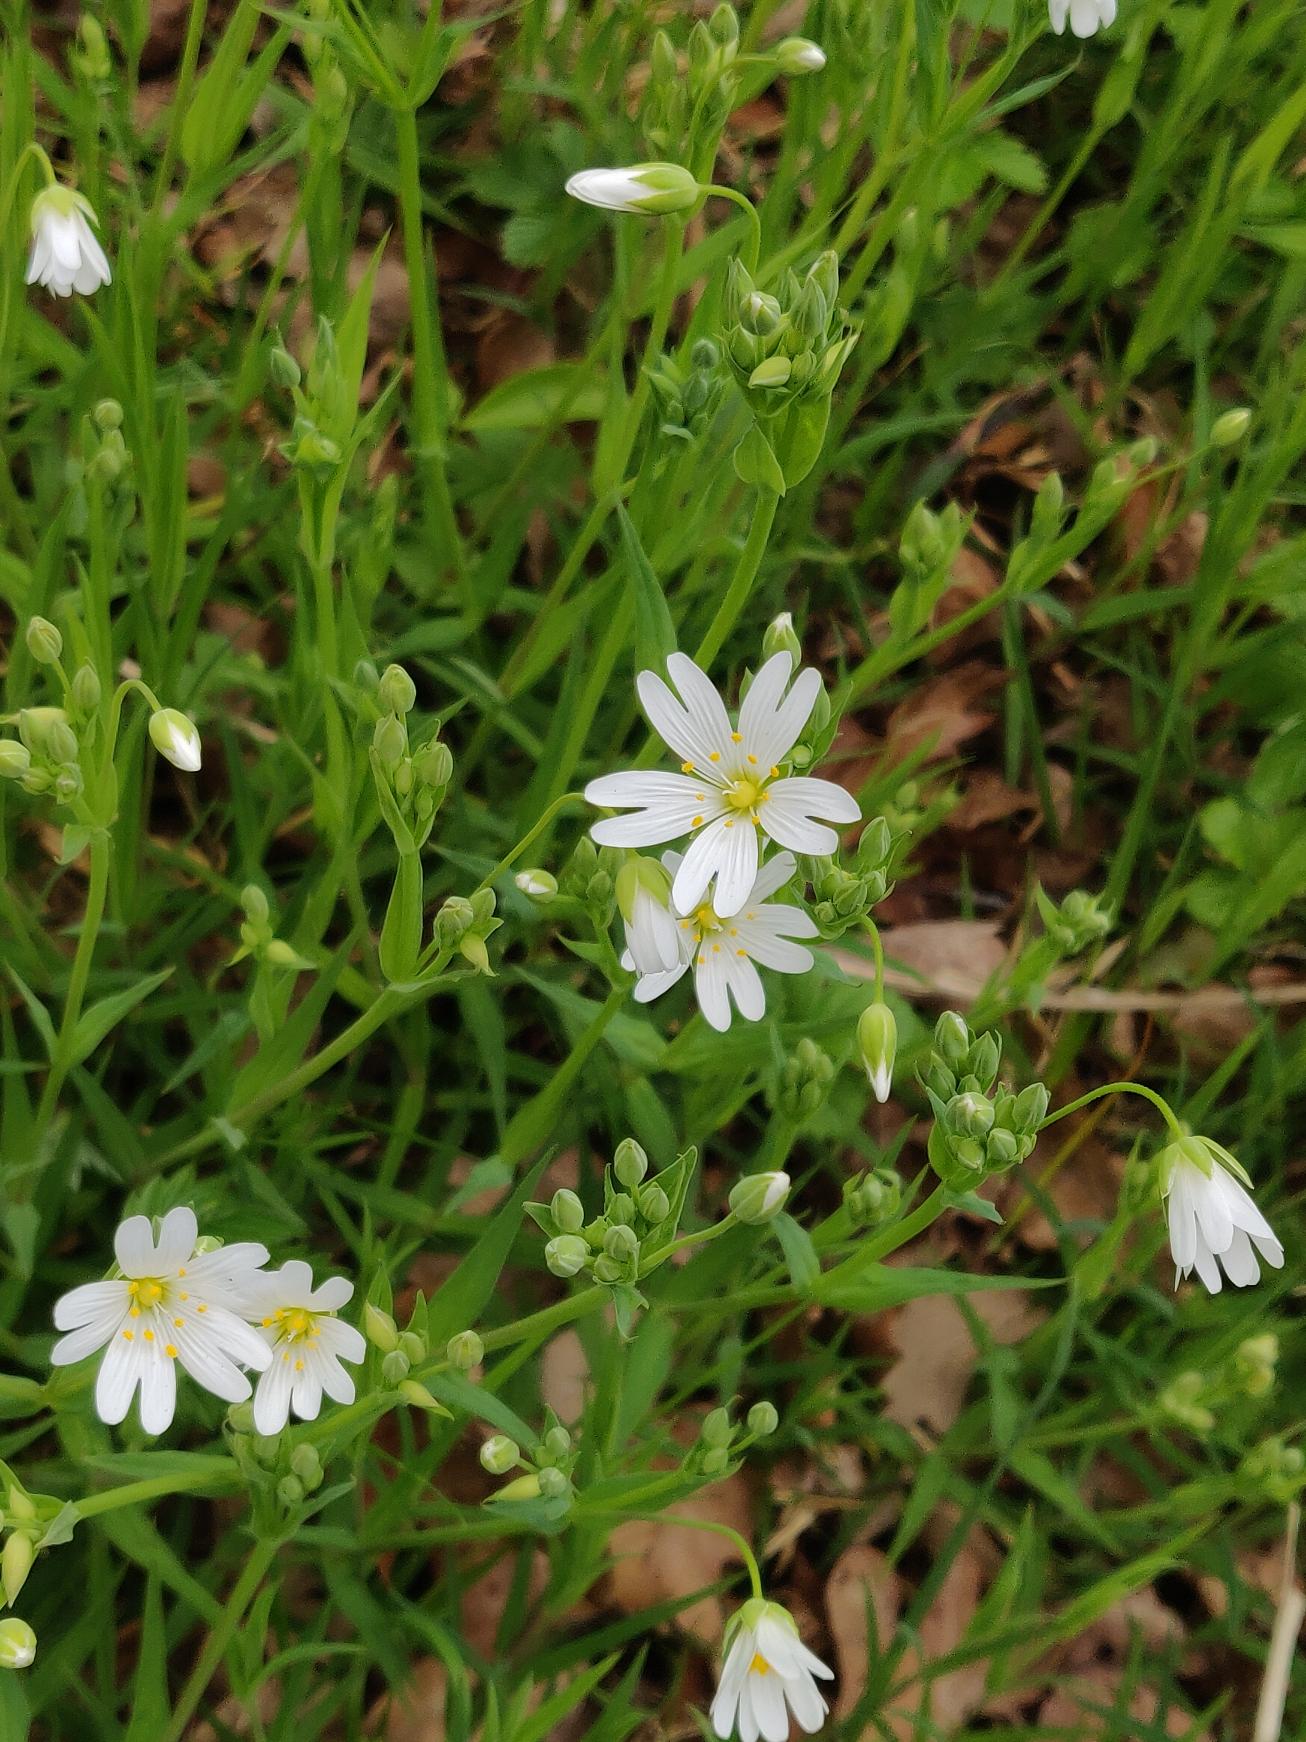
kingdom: Plantae
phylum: Tracheophyta
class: Magnoliopsida
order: Caryophyllales
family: Caryophyllaceae
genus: Rabelera
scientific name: Rabelera holostea
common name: Stor fladstjerne
